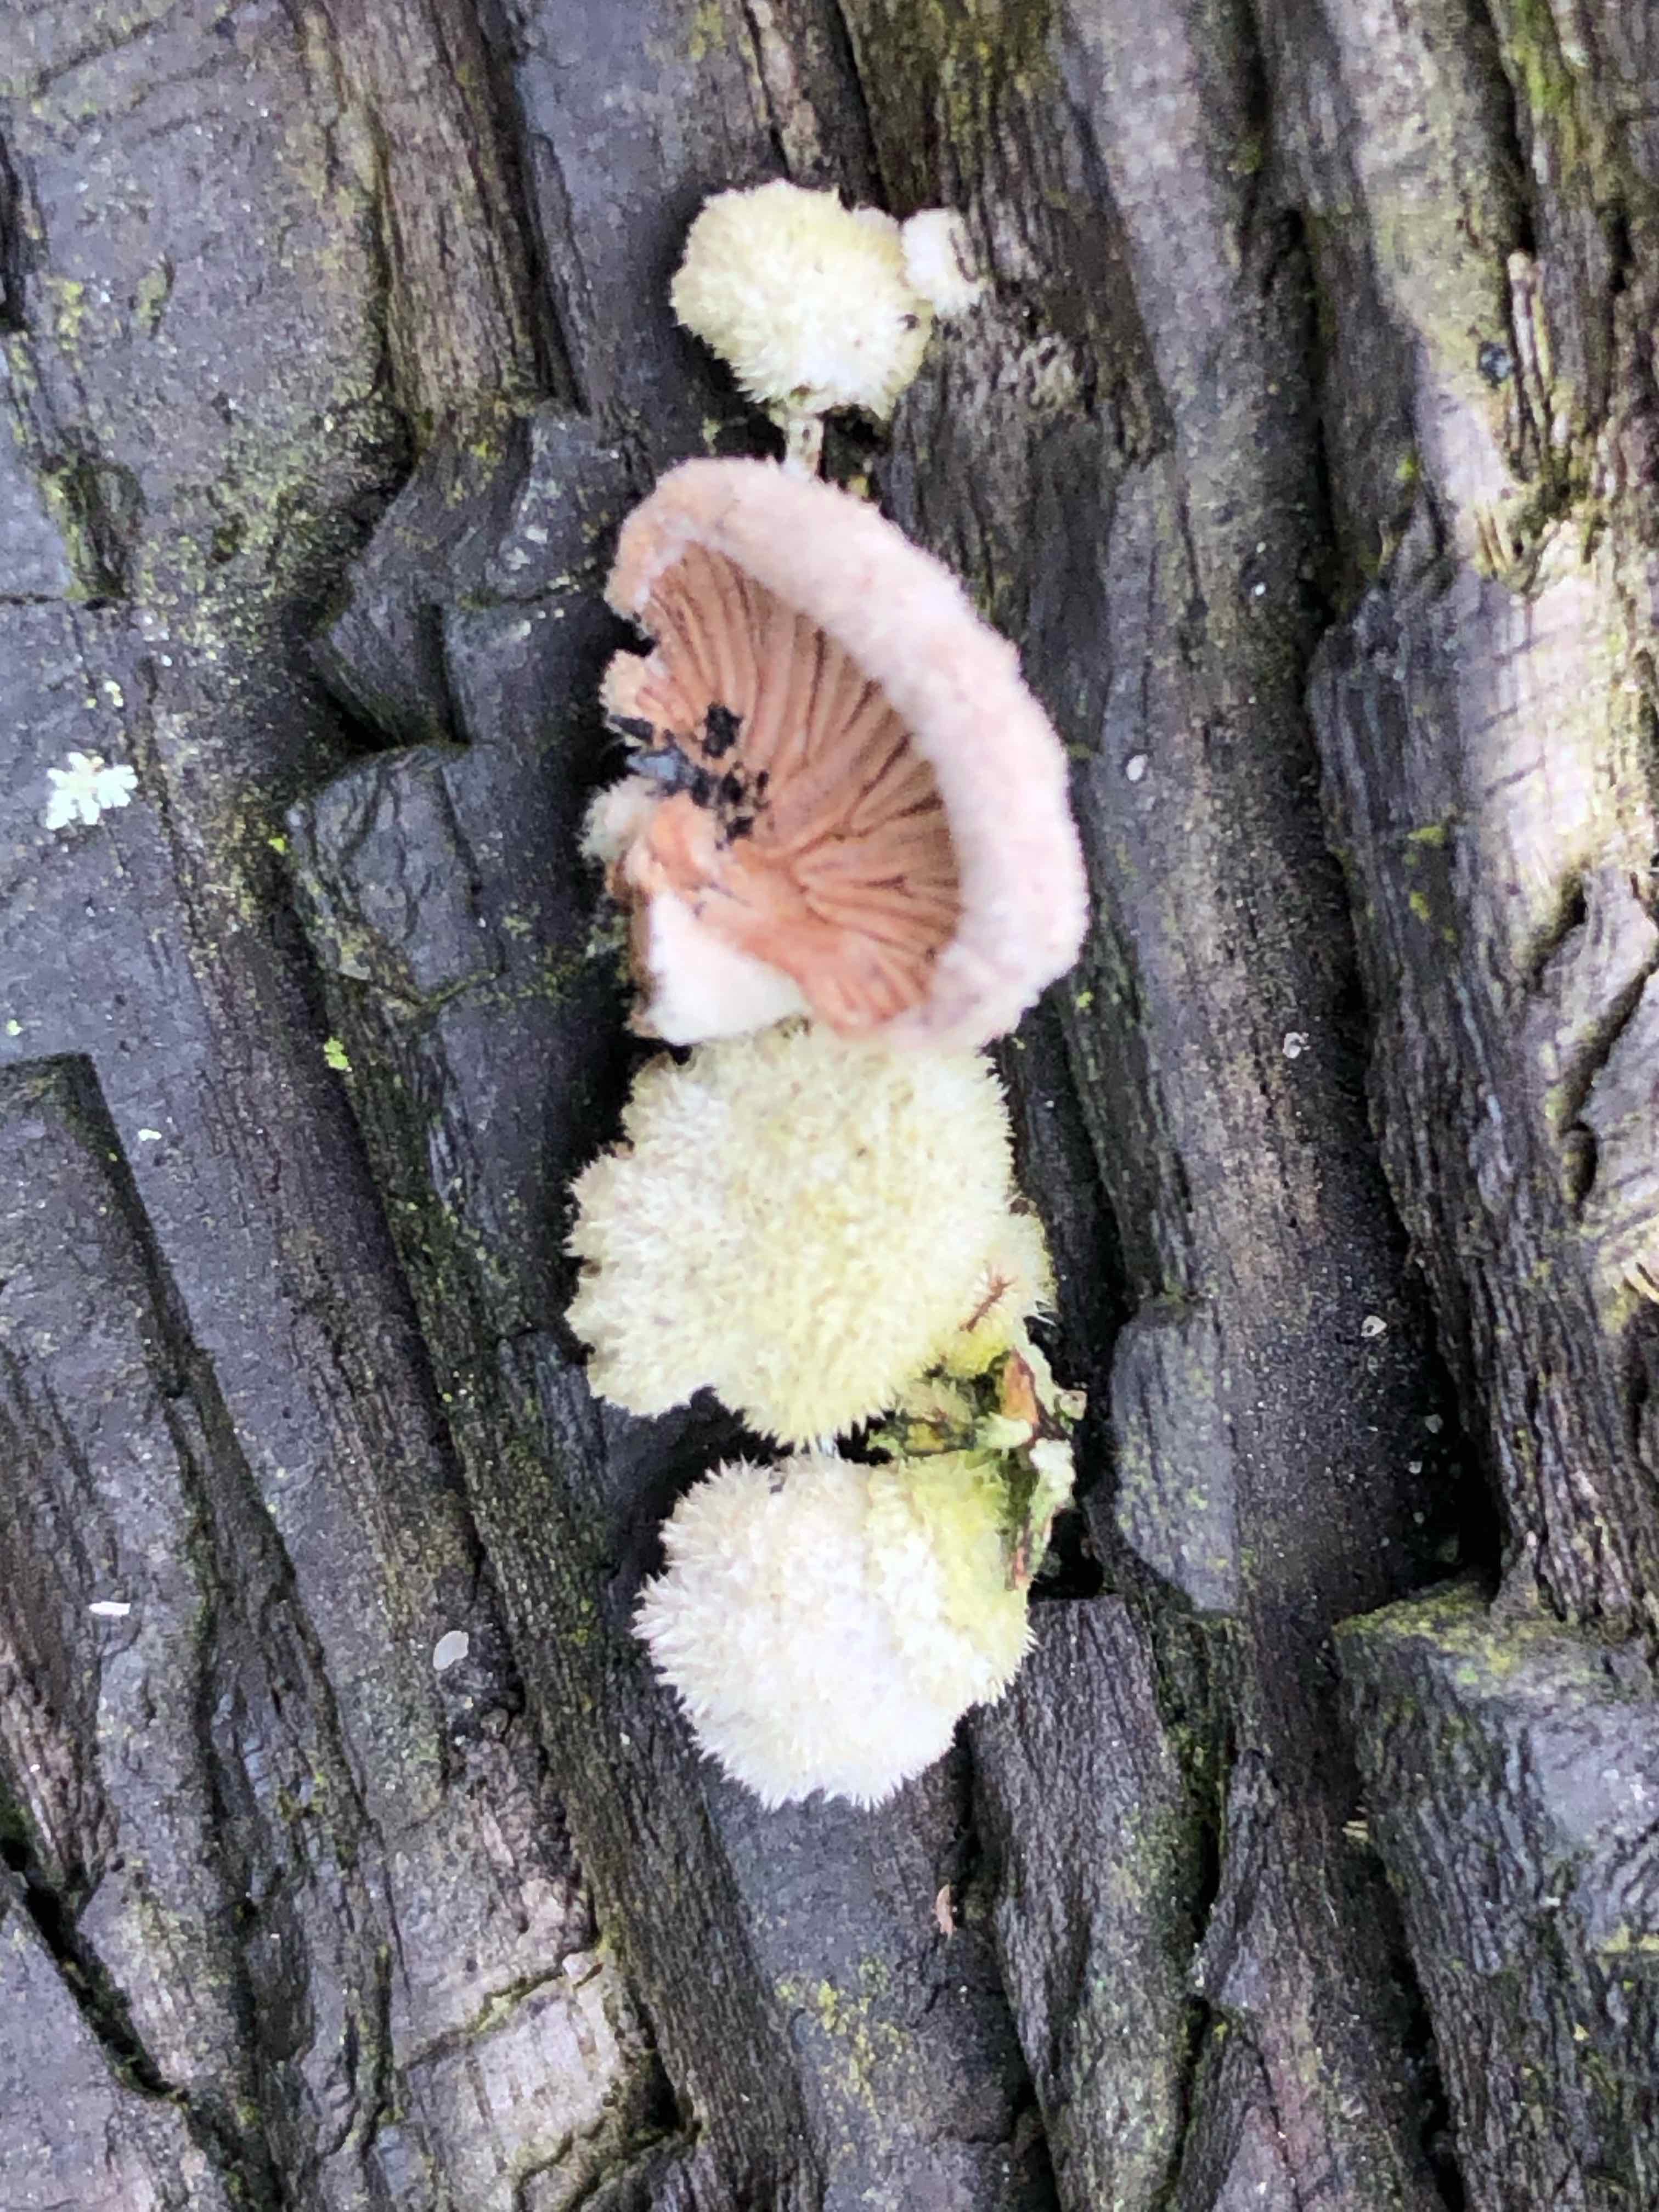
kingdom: Fungi
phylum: Basidiomycota
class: Agaricomycetes
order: Agaricales
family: Schizophyllaceae
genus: Schizophyllum
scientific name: Schizophyllum commune
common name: kløvblad
